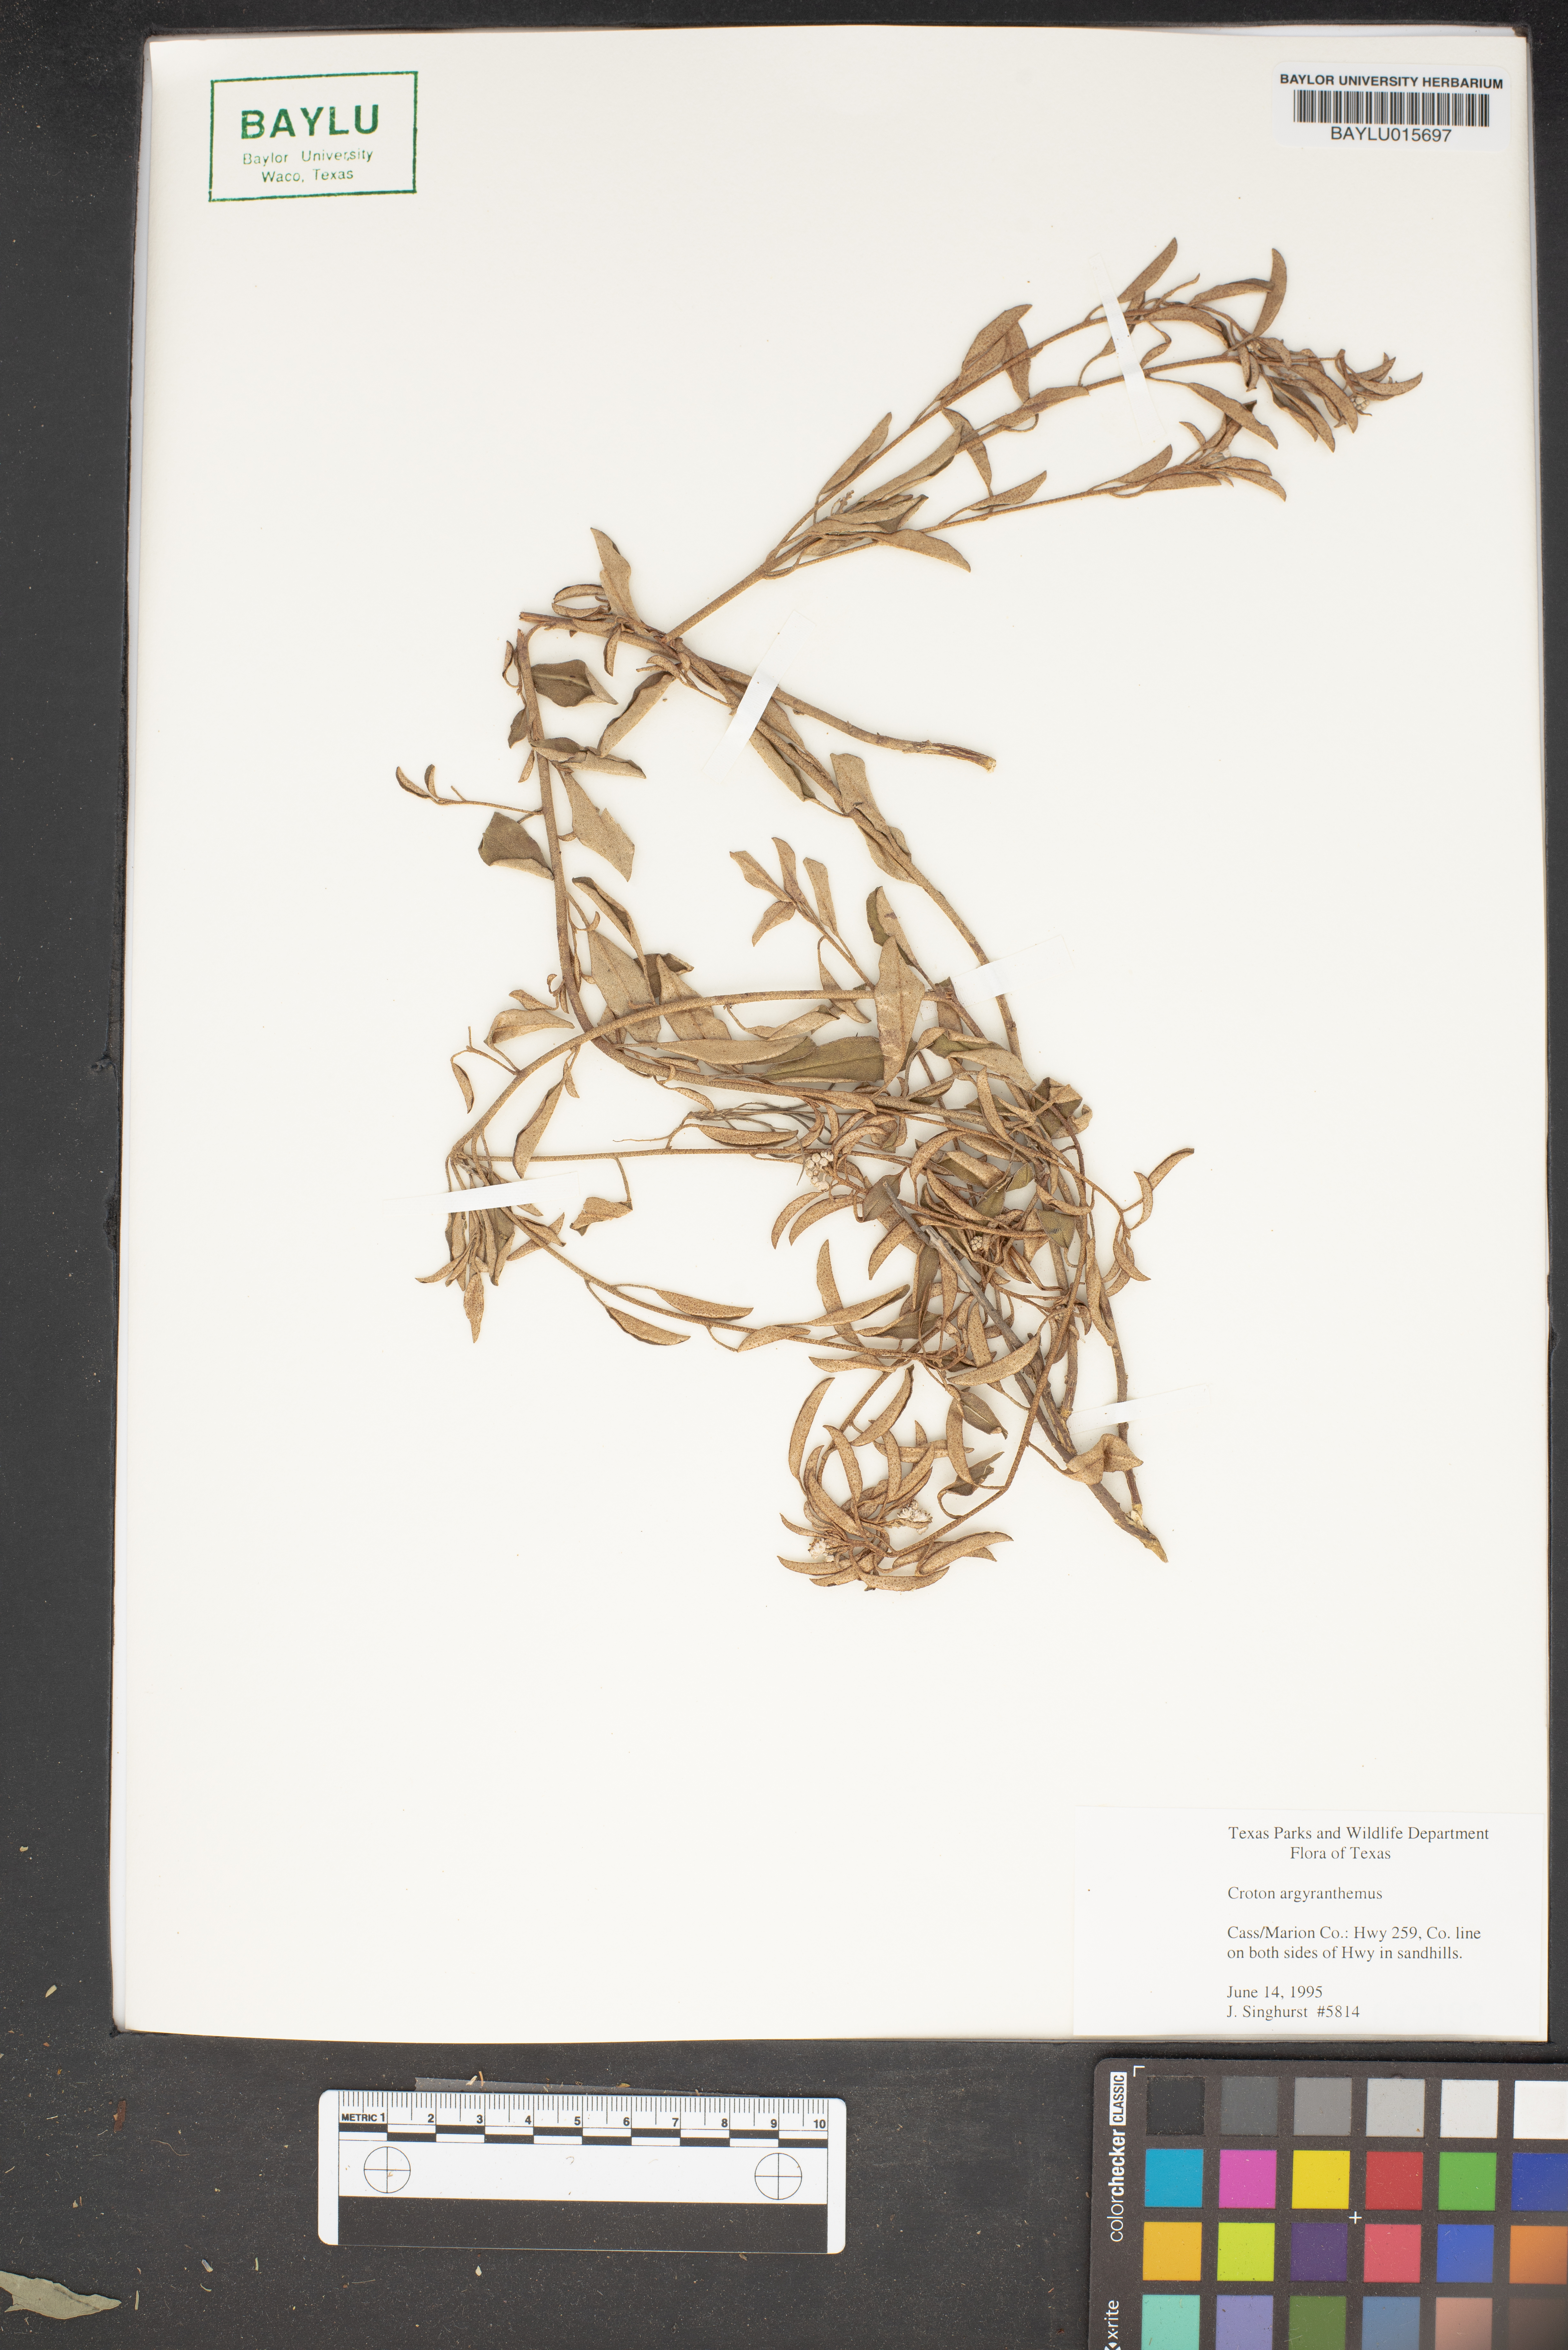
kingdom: Plantae
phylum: Tracheophyta
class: Magnoliopsida
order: Malpighiales
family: Euphorbiaceae
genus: Croton
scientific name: Croton argyranthemus
